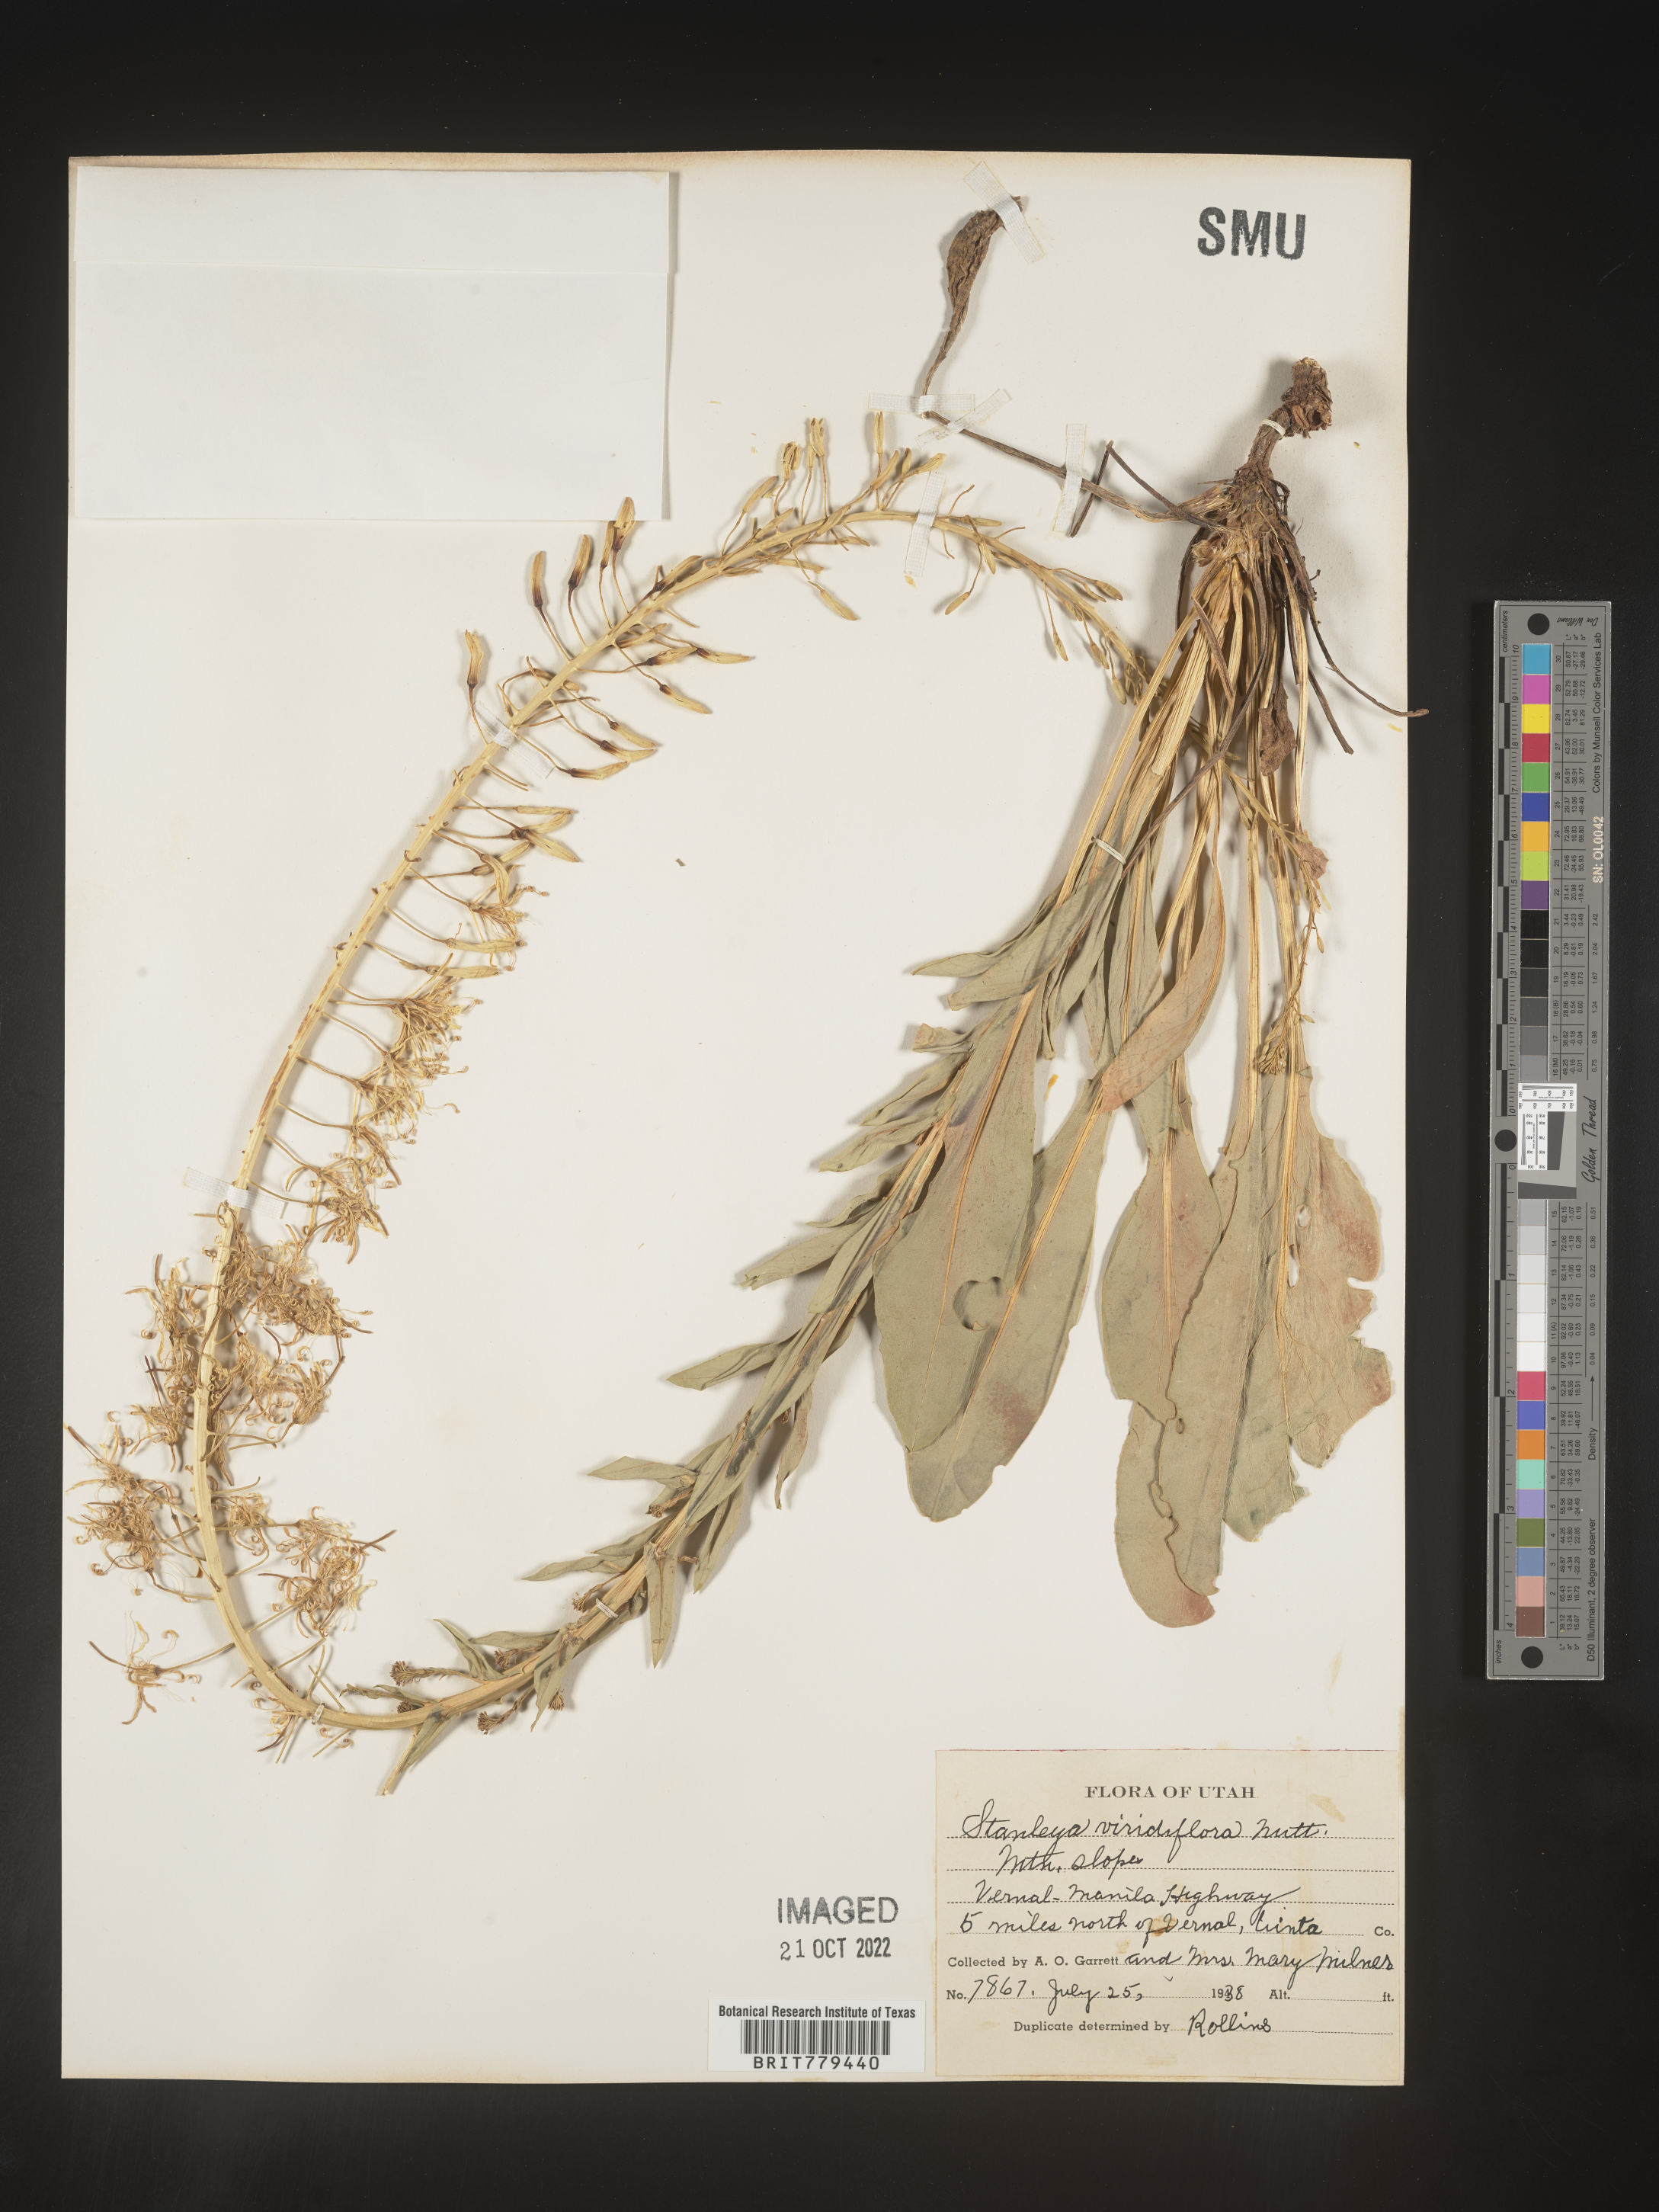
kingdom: Plantae
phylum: Tracheophyta
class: Magnoliopsida
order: Brassicales
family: Brassicaceae
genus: Stanleya
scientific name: Stanleya
